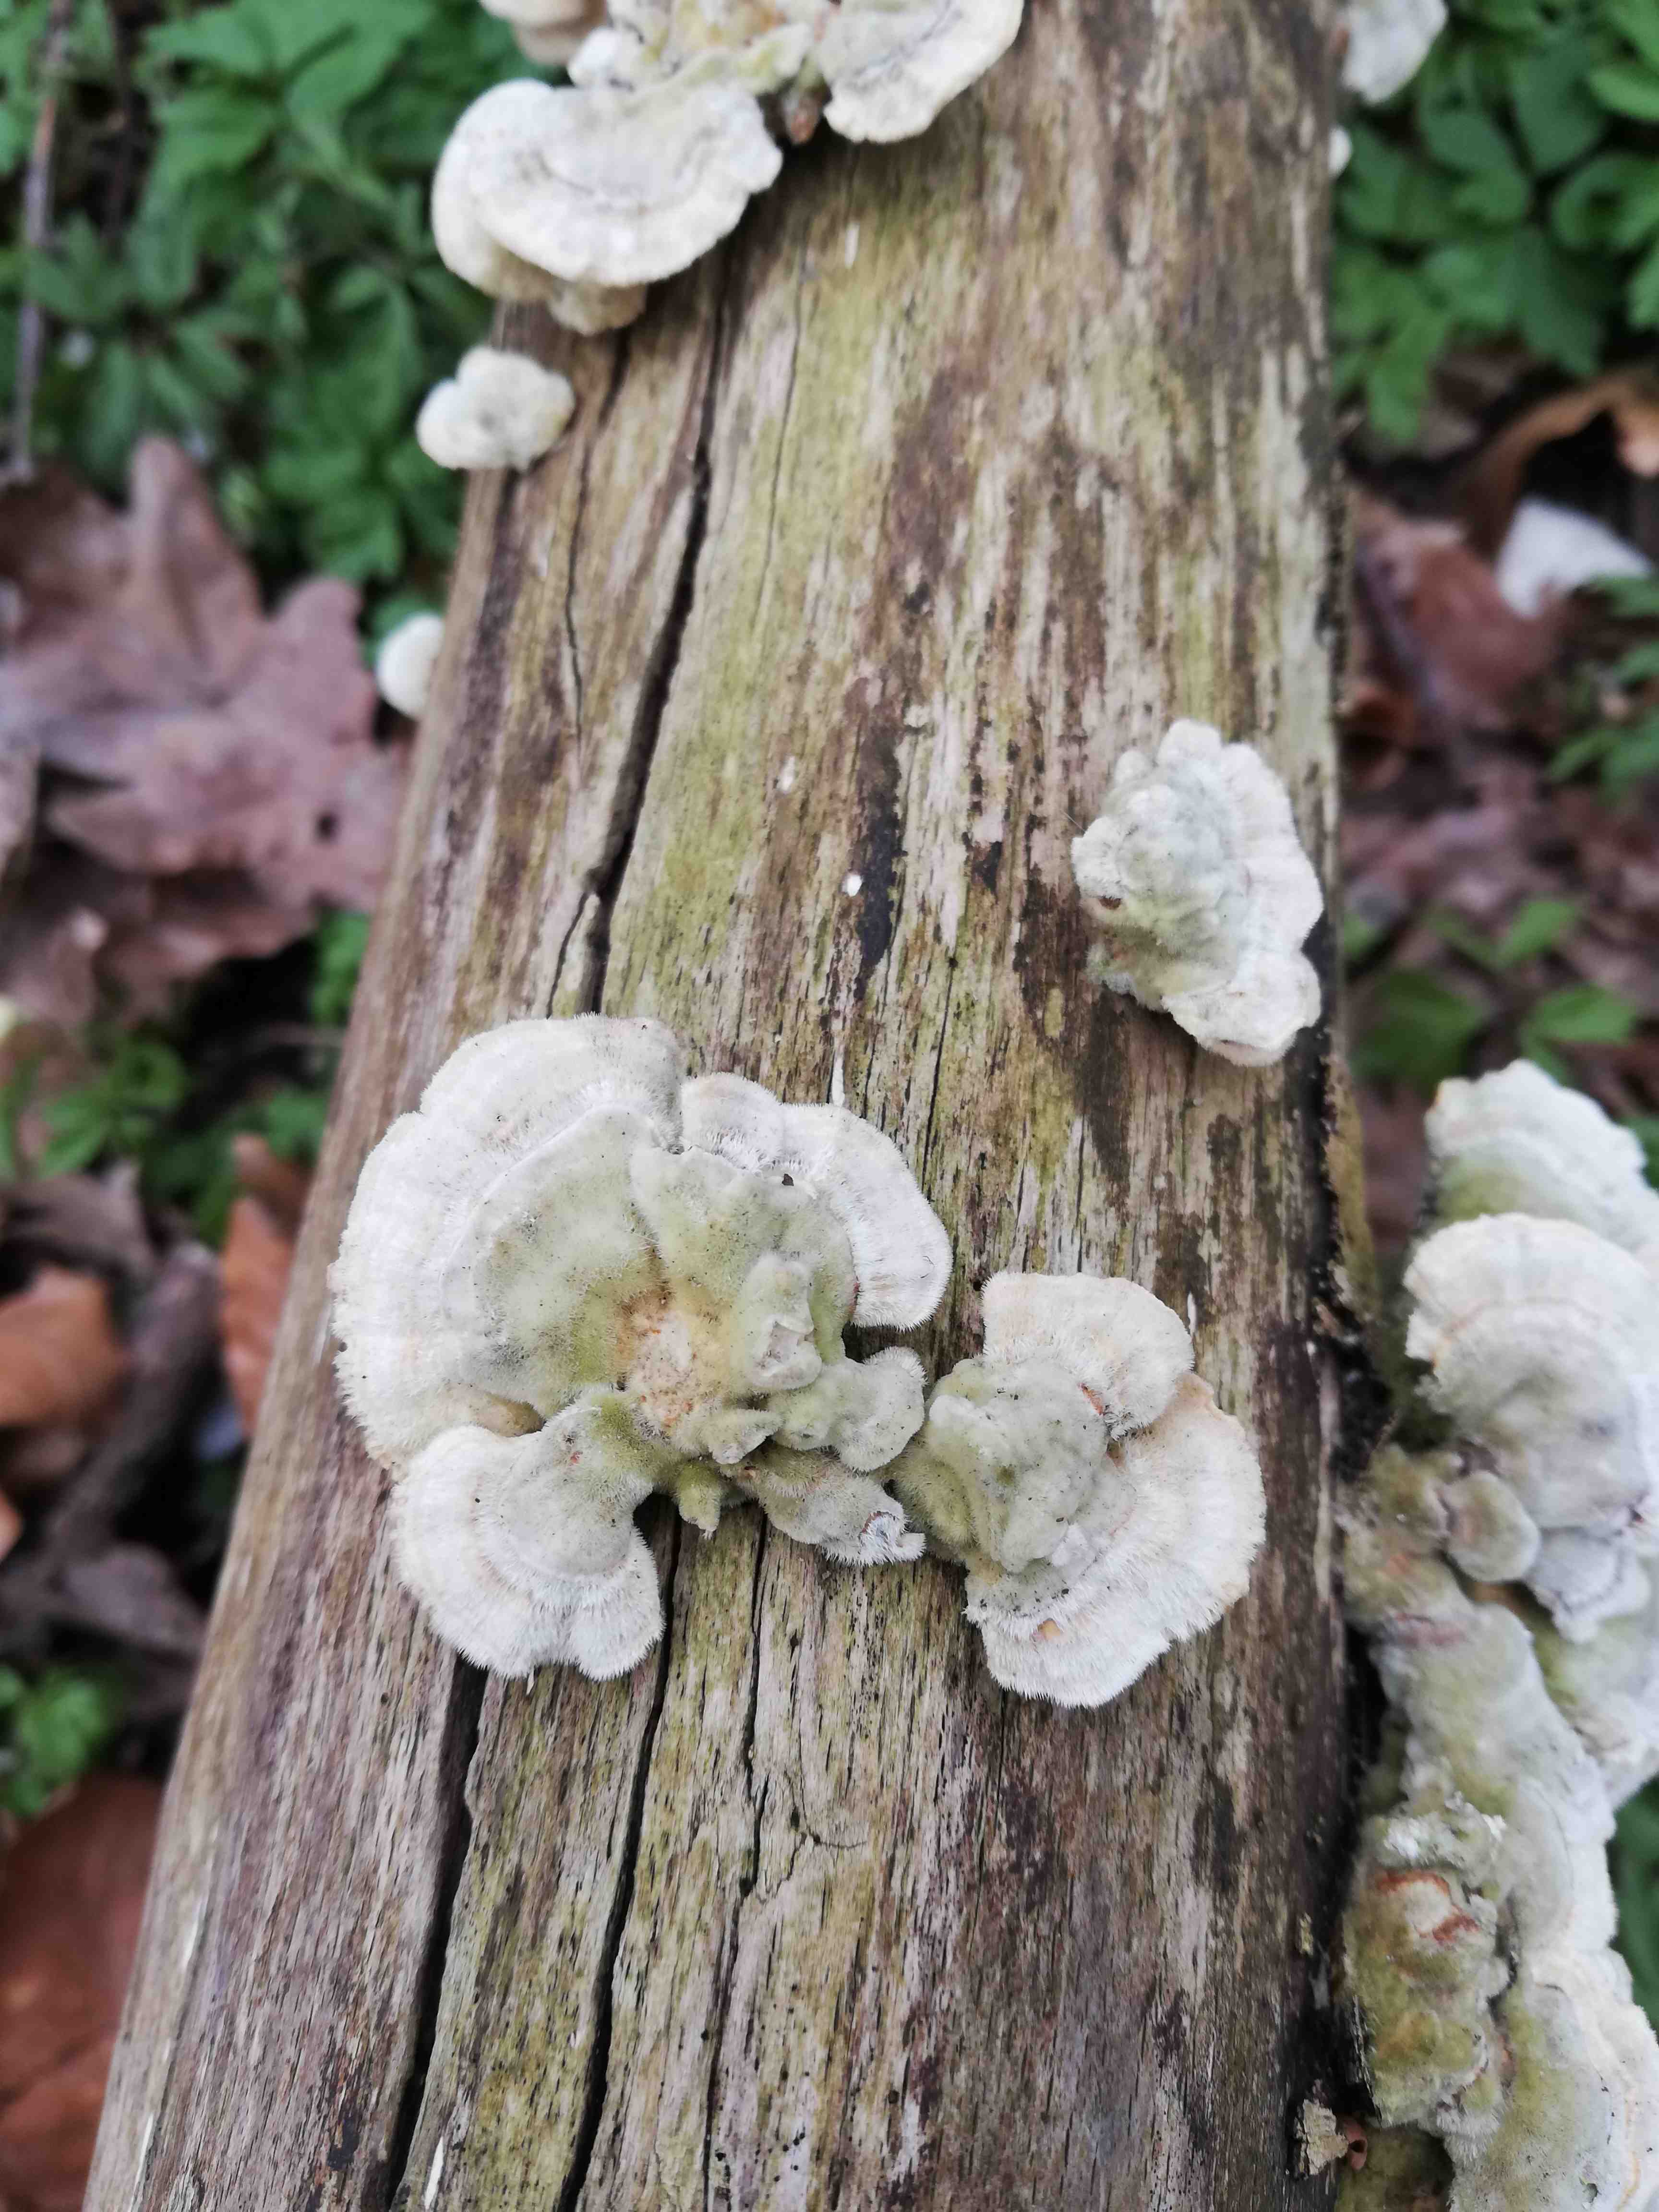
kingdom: Fungi
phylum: Basidiomycota
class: Agaricomycetes
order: Polyporales
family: Polyporaceae
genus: Trametes
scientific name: Trametes hirsuta
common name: håret læderporesvamp
